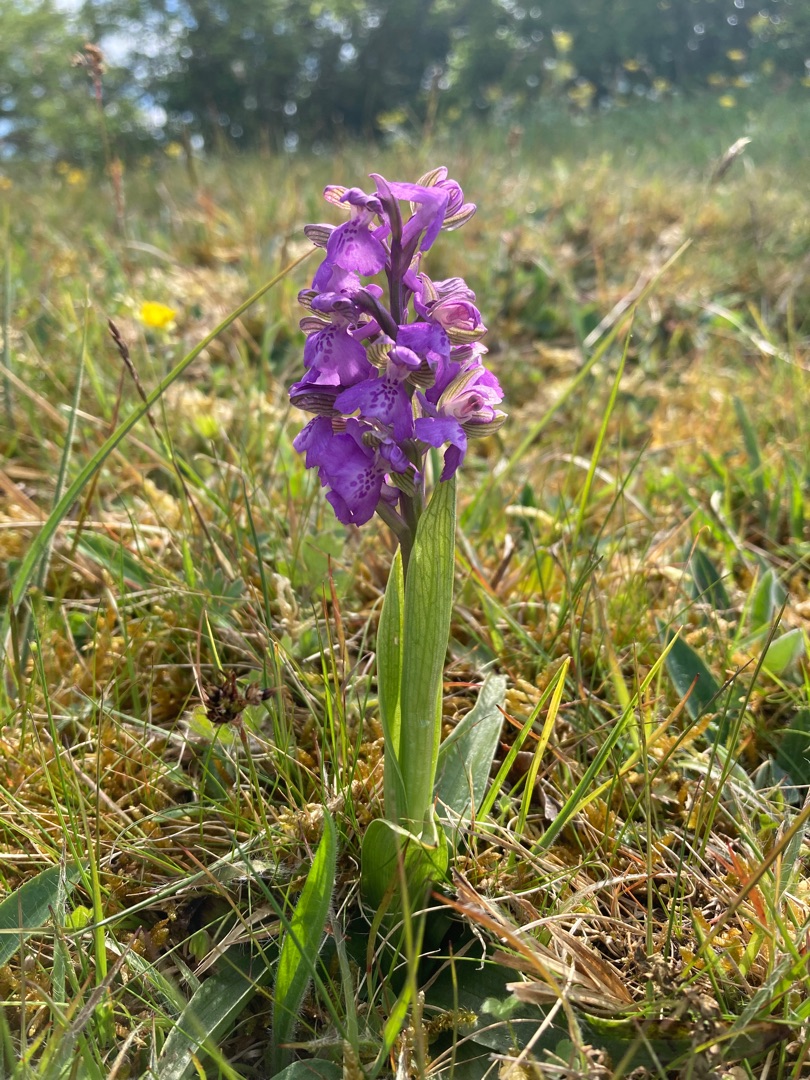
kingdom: Plantae
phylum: Tracheophyta
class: Liliopsida
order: Asparagales
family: Orchidaceae
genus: Anacamptis
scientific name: Anacamptis morio
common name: Salepgøgeurt
